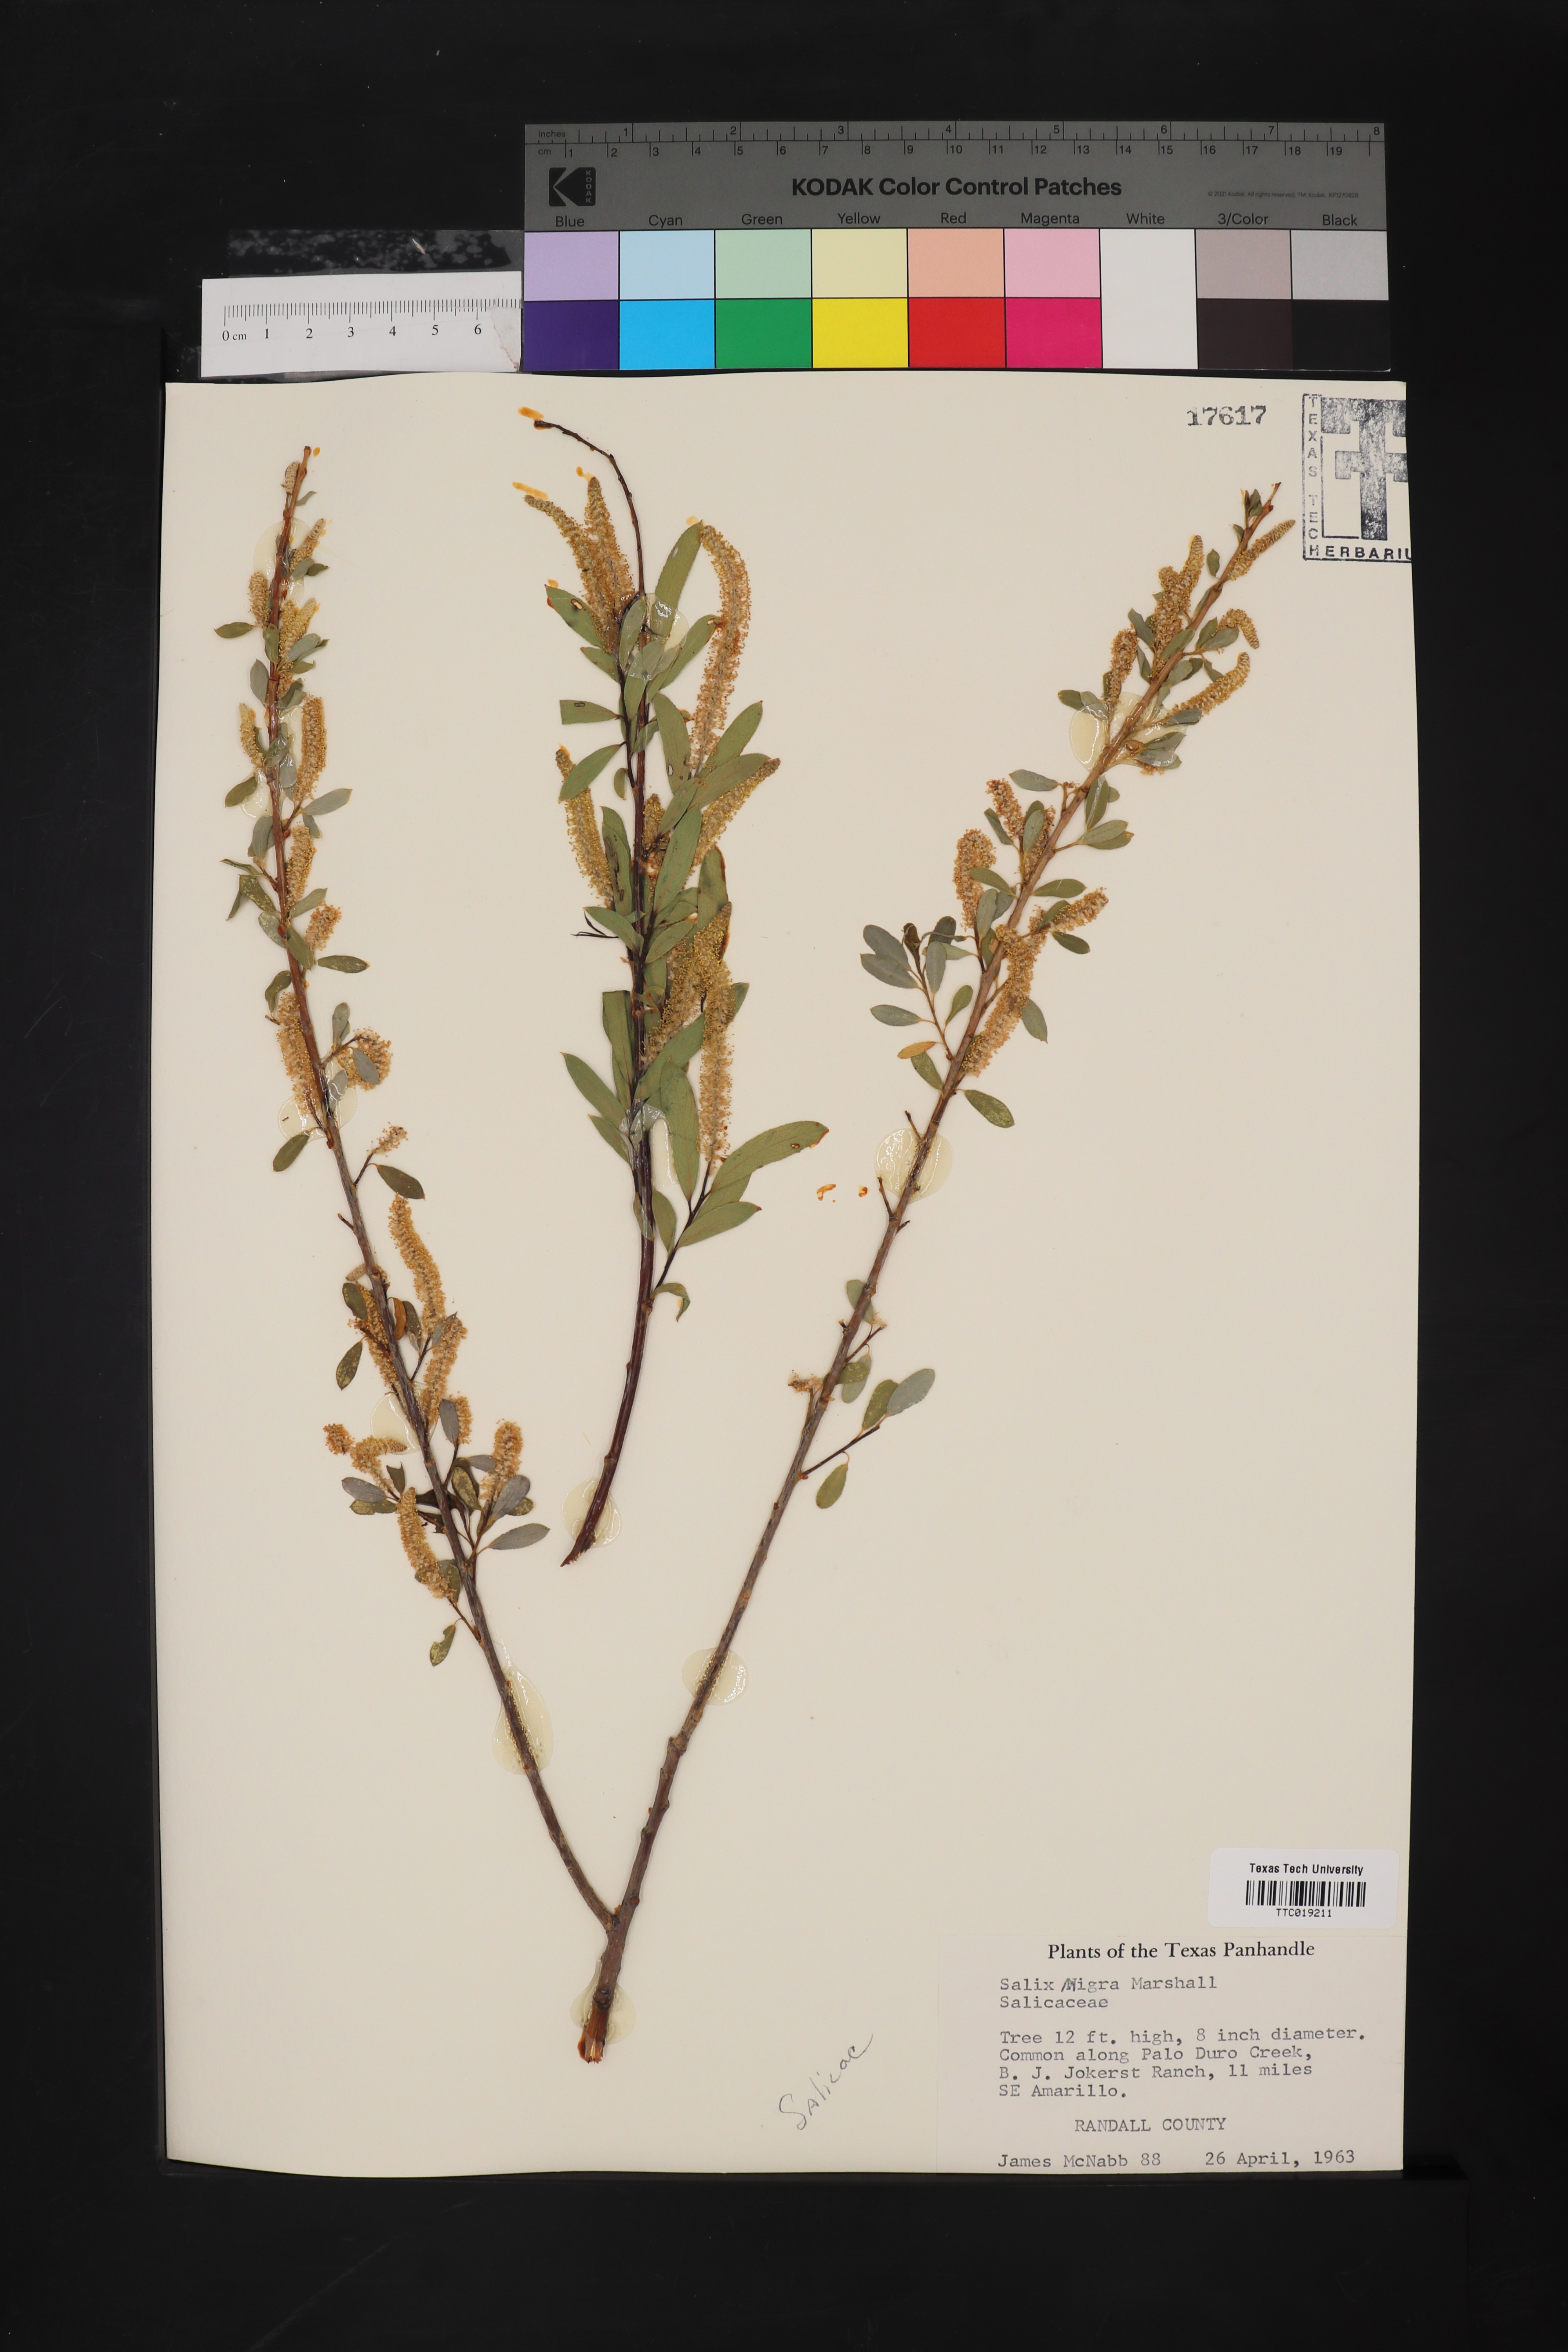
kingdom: Plantae
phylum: Tracheophyta
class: Magnoliopsida
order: Malpighiales
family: Salicaceae
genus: Salix
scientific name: Salix nigra
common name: Black willow
